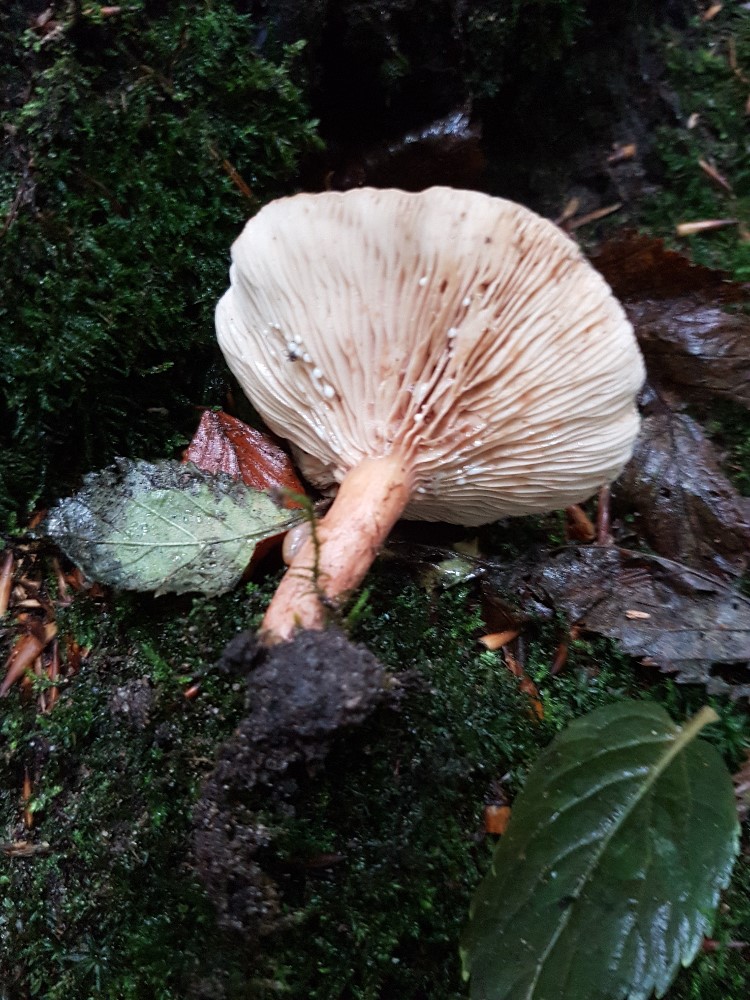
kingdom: Fungi
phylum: Basidiomycota
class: Agaricomycetes
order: Russulales
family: Russulaceae
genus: Lactarius
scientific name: Lactarius subdulcis
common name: sødlig mælkehat
